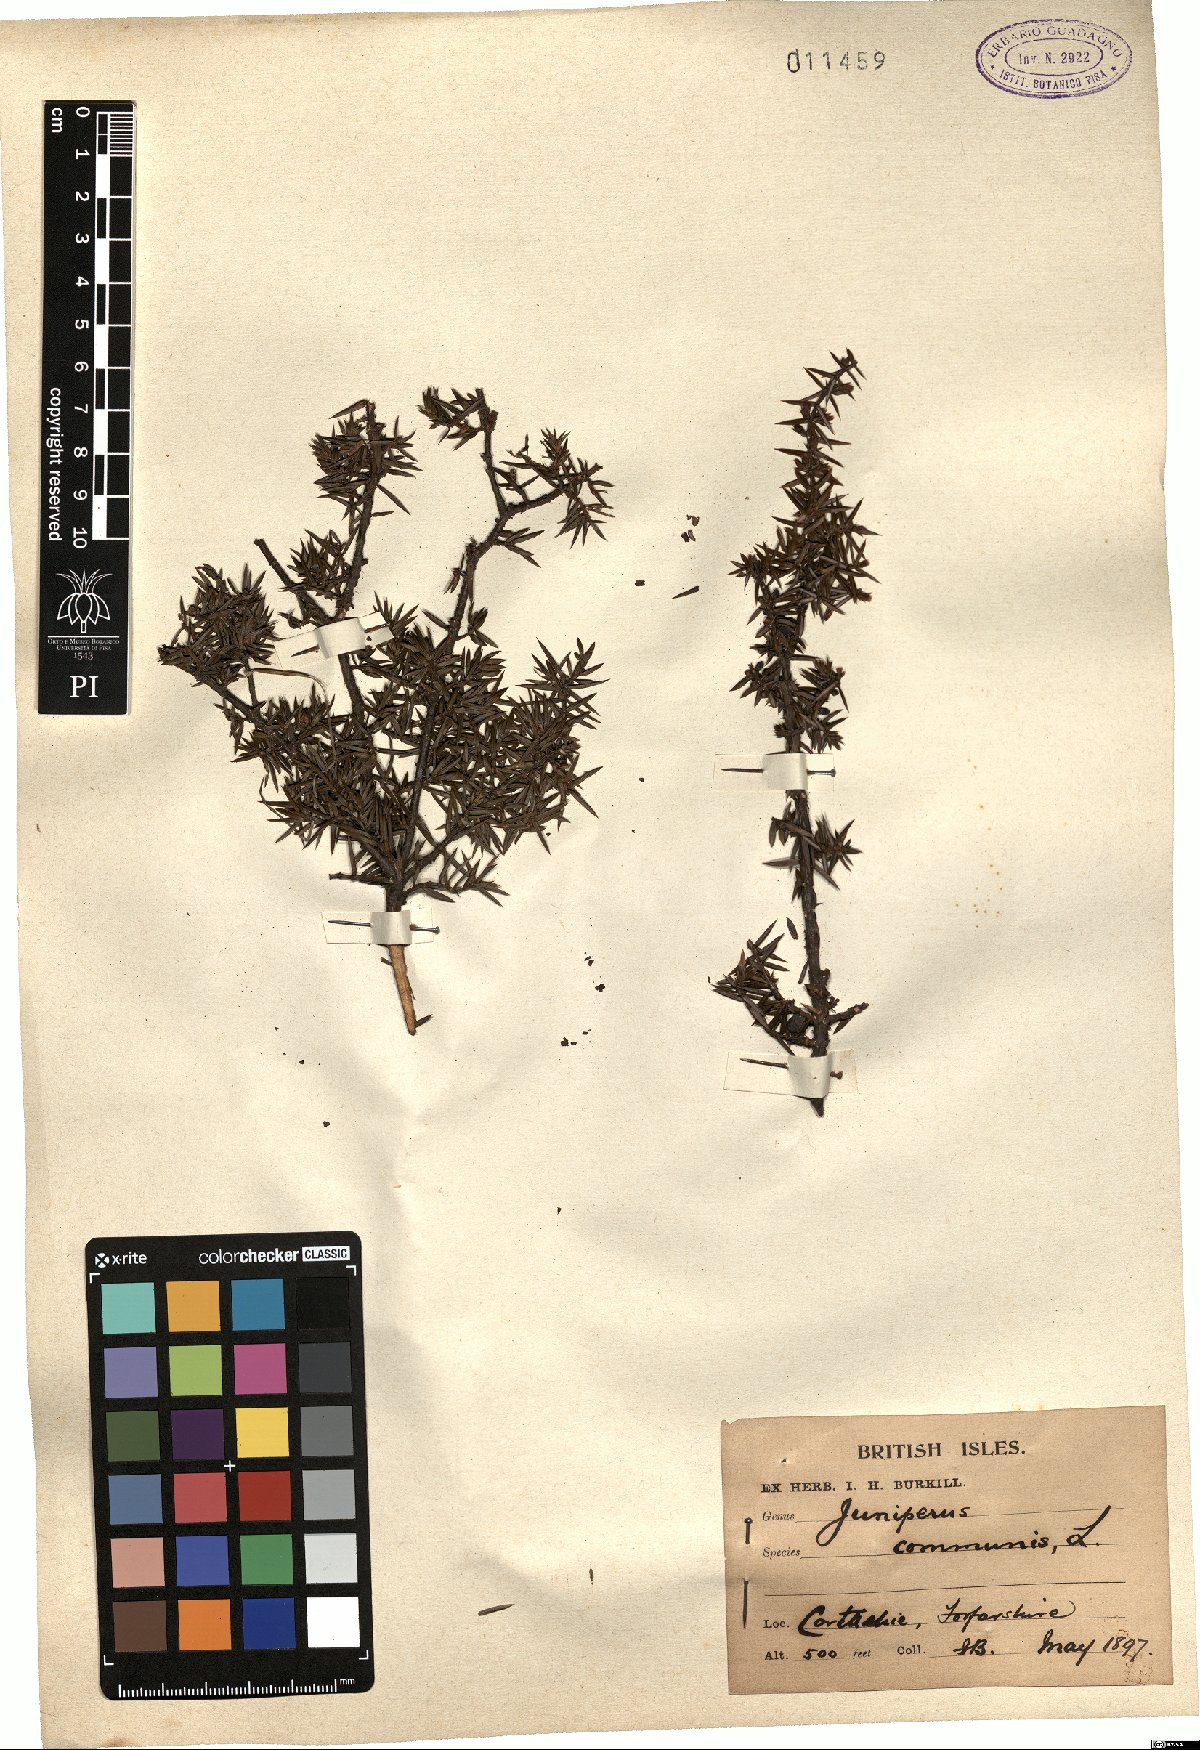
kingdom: Plantae
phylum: Tracheophyta
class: Pinopsida
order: Pinales
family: Cupressaceae
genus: Juniperus
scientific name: Juniperus communis
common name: Common juniper
